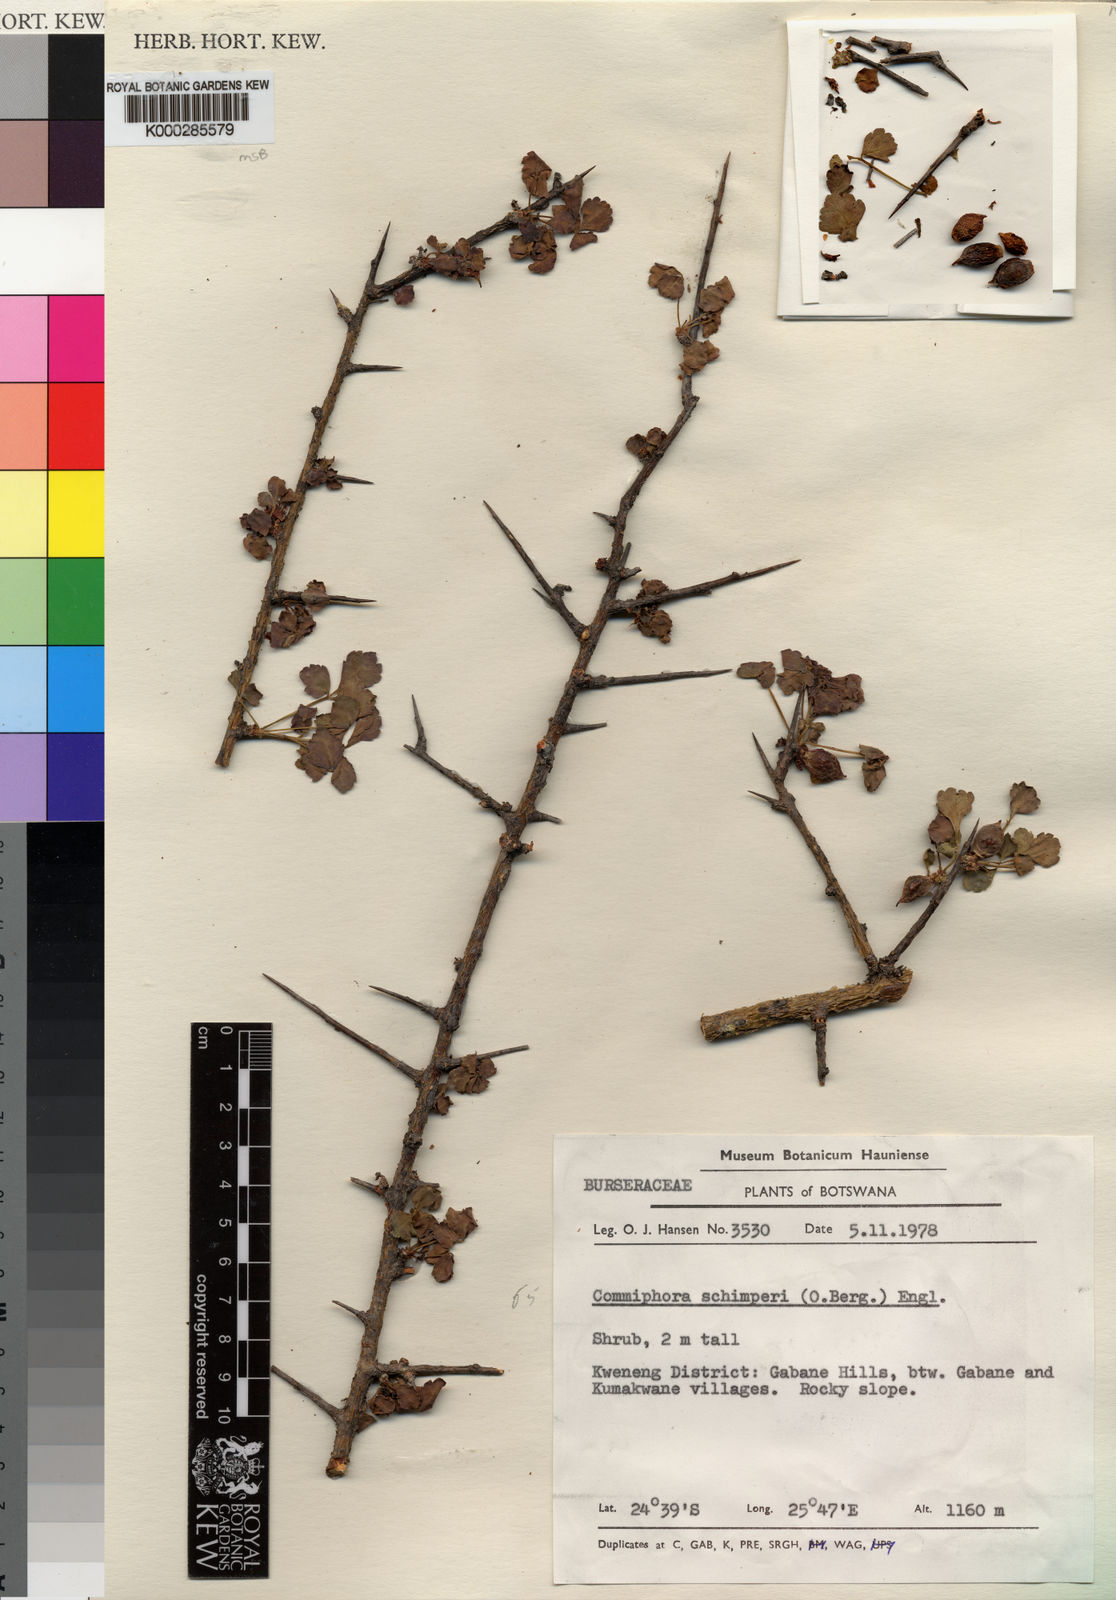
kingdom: Plantae
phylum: Tracheophyta
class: Magnoliopsida
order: Sapindales
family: Burseraceae
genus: Commiphora
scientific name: Commiphora schimperi
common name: Glossy-leaved corkwood
